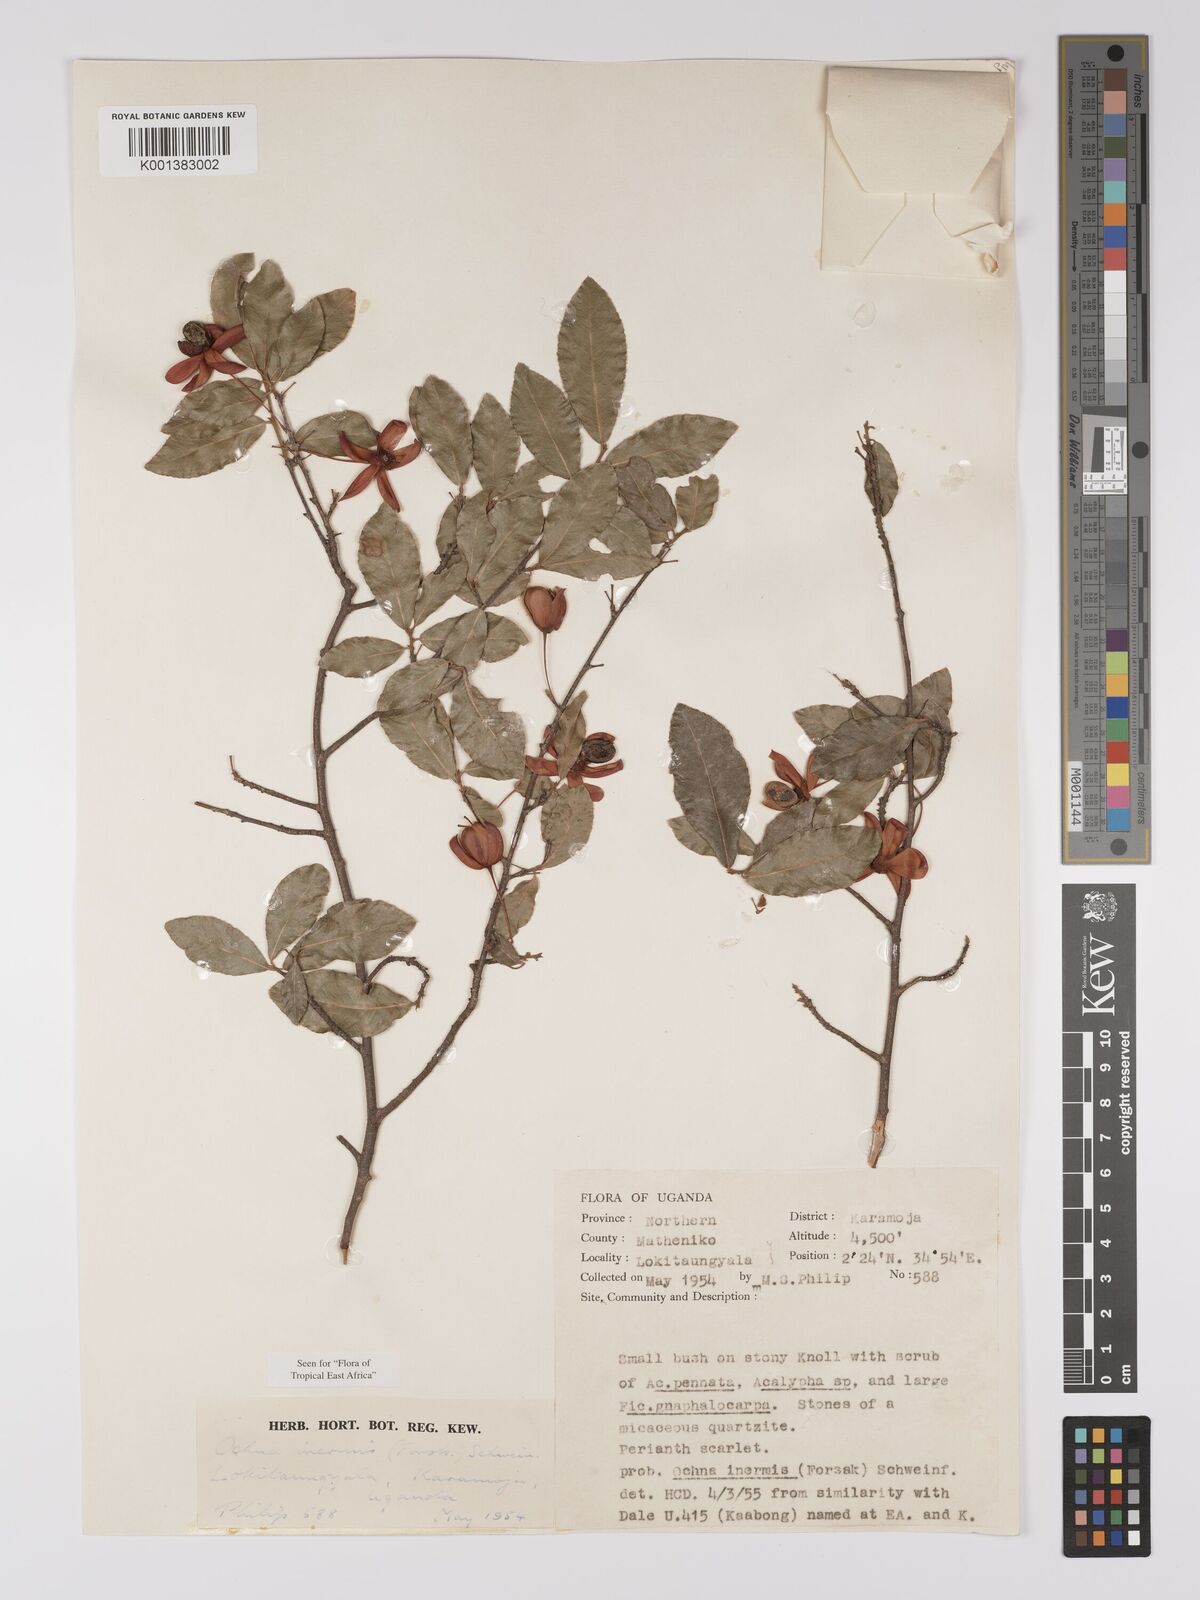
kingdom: Plantae
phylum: Tracheophyta
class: Magnoliopsida
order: Malpighiales
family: Ochnaceae
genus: Ochna
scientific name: Ochna inermis
